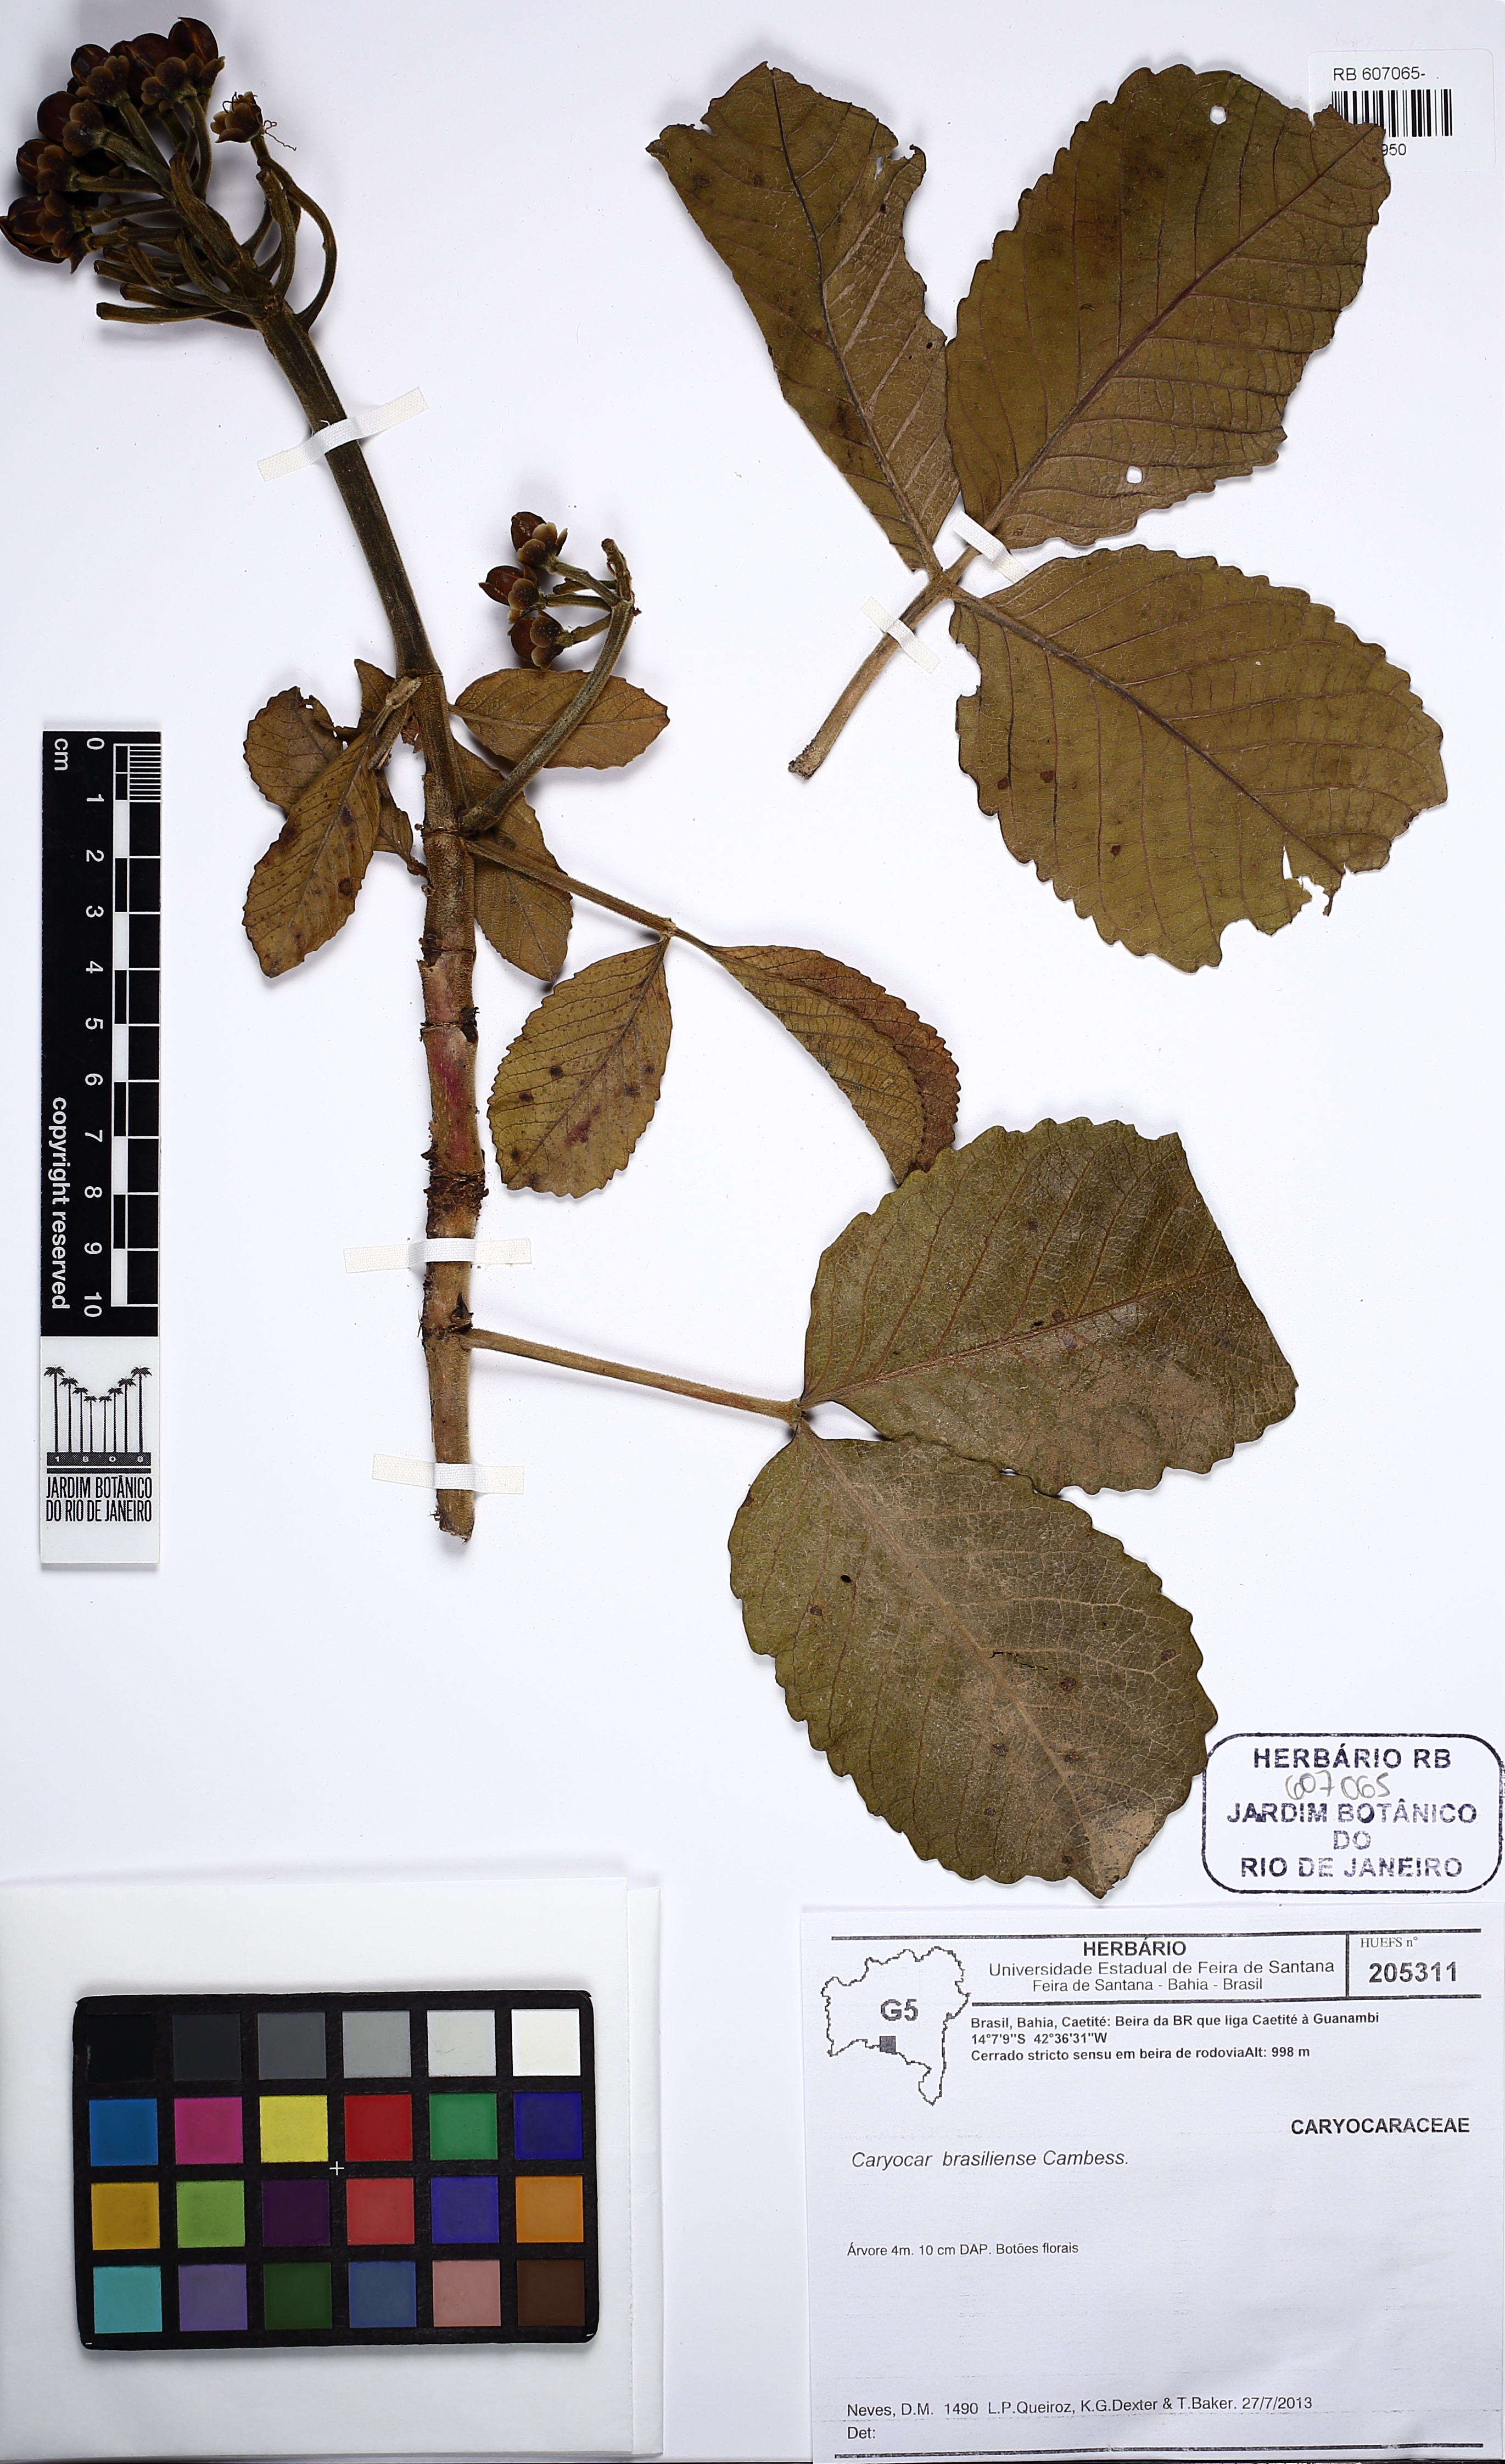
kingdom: Plantae
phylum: Tracheophyta
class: Magnoliopsida
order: Malpighiales
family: Caryocaraceae
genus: Caryocar
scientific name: Caryocar brasiliense
